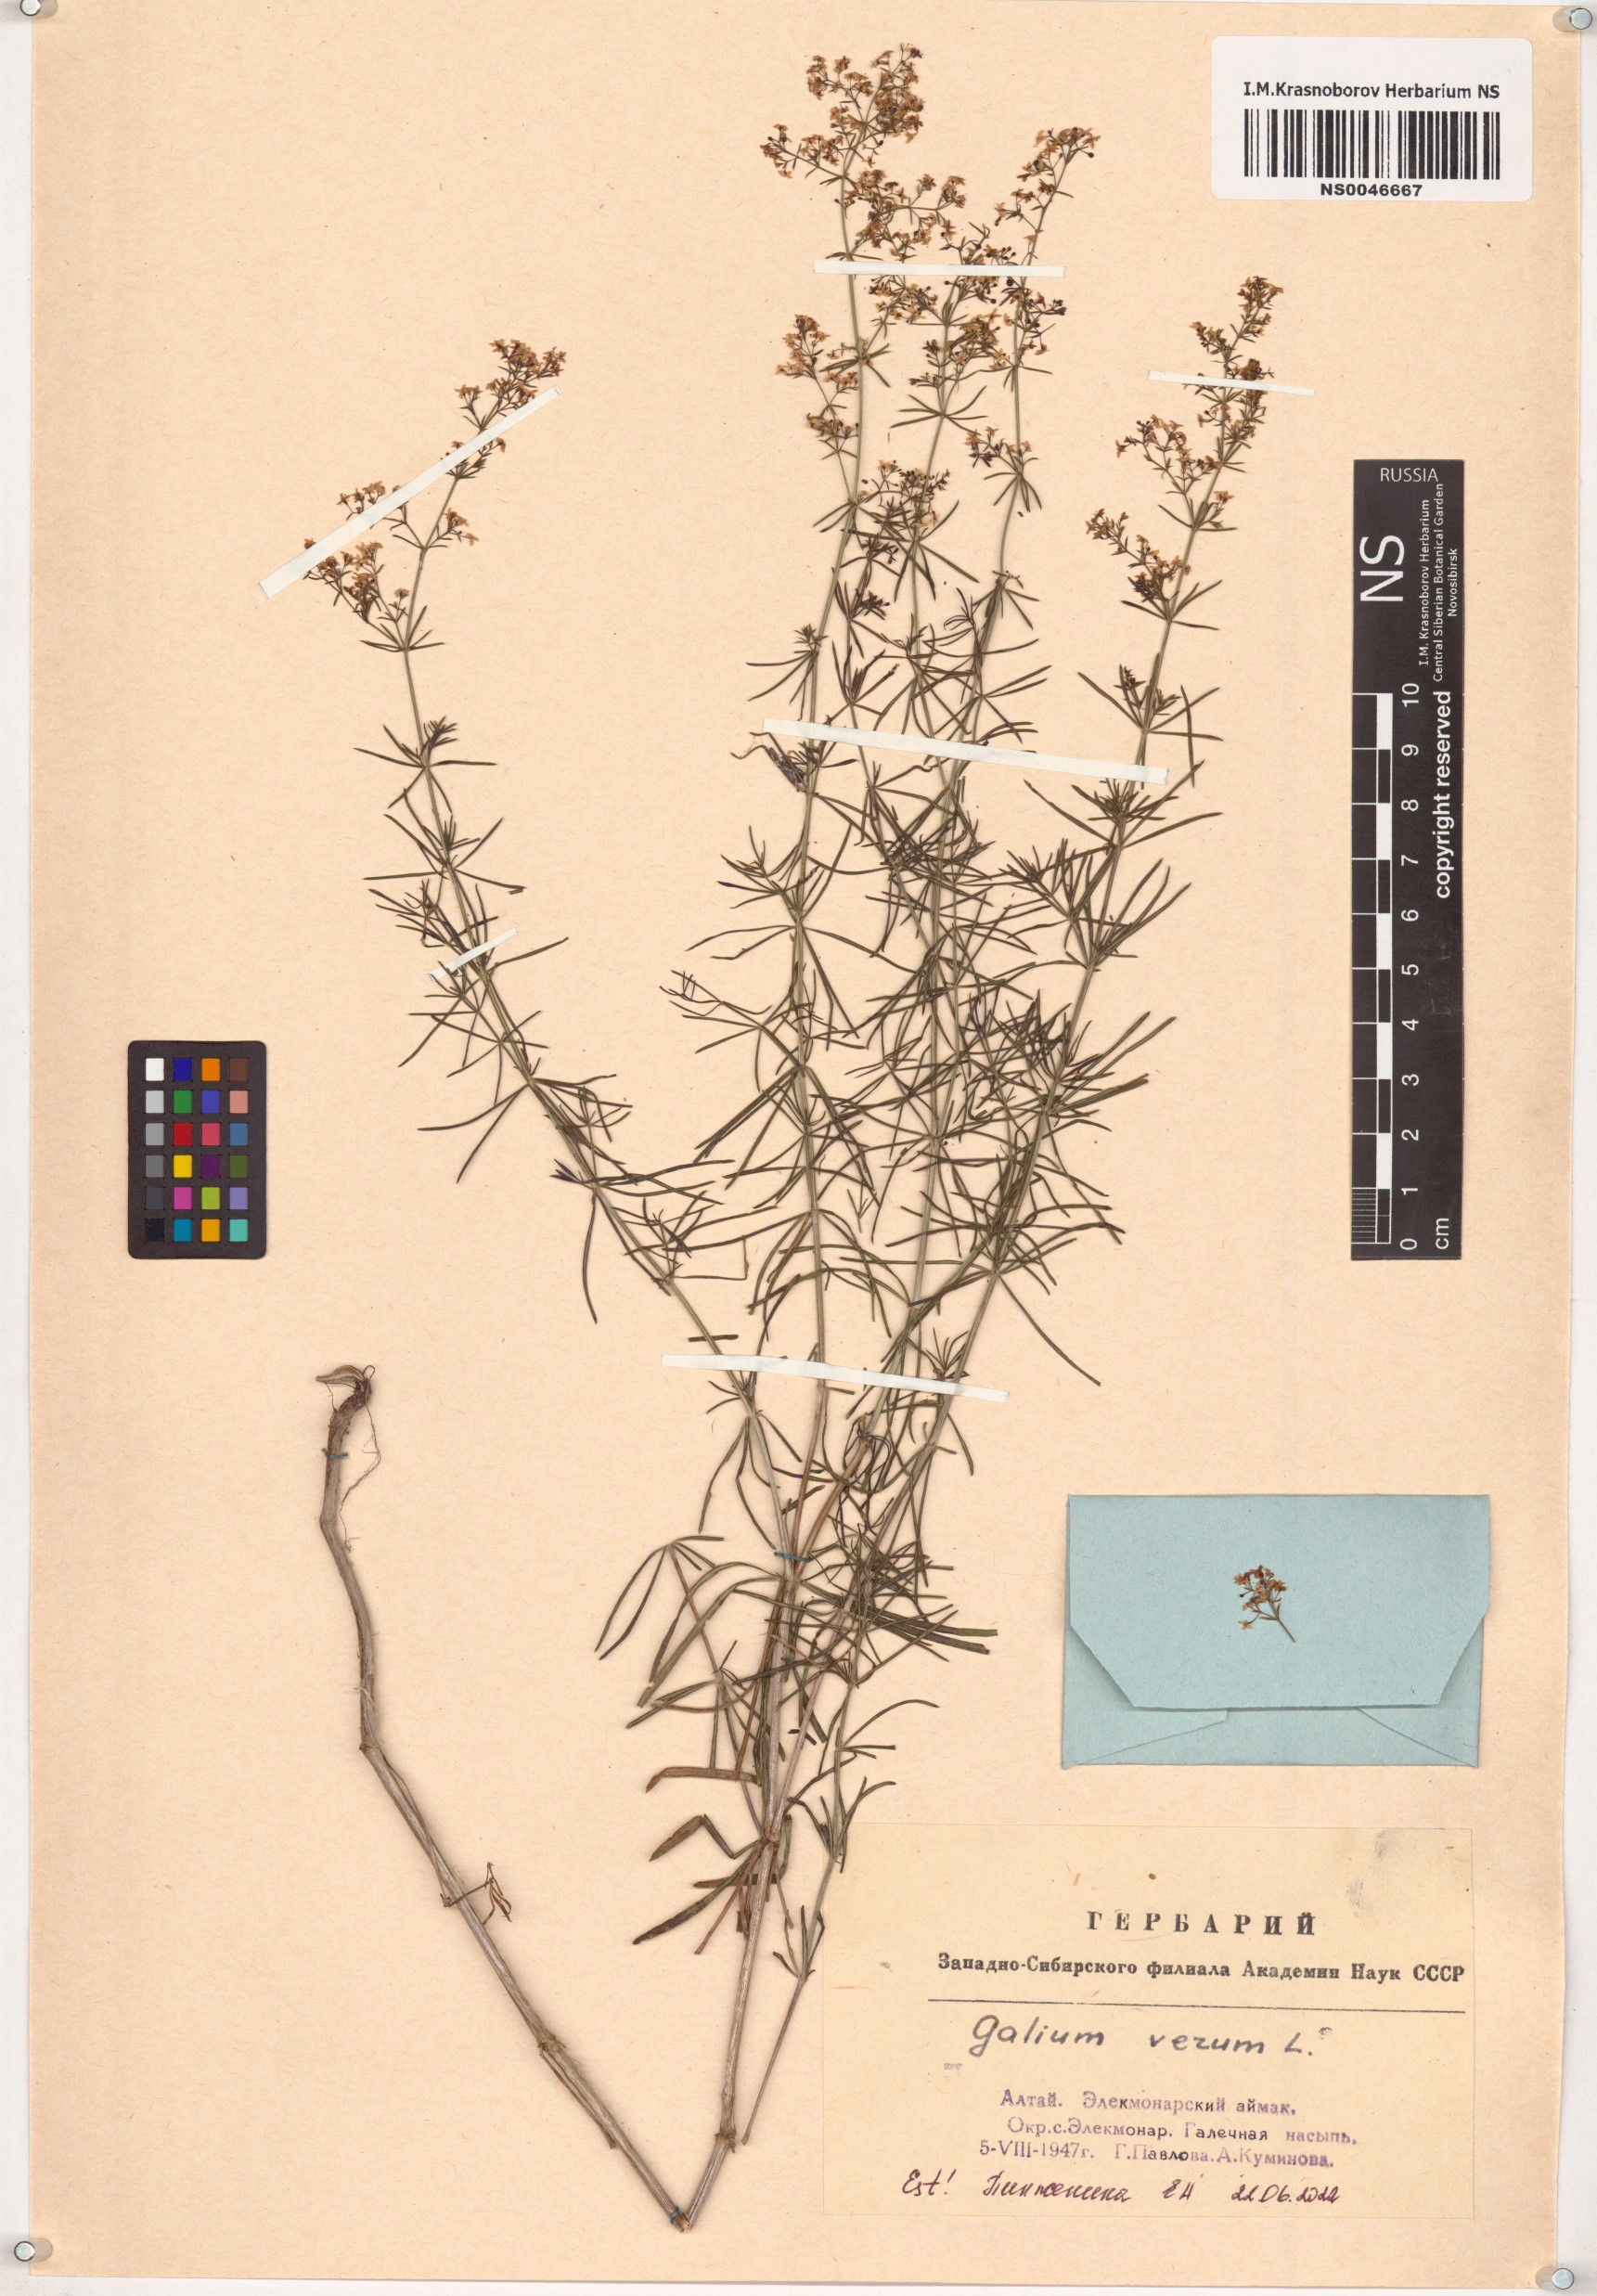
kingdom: Plantae
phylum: Tracheophyta
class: Magnoliopsida
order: Gentianales
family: Rubiaceae
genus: Galium
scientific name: Galium verum
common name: Lady's bedstraw
